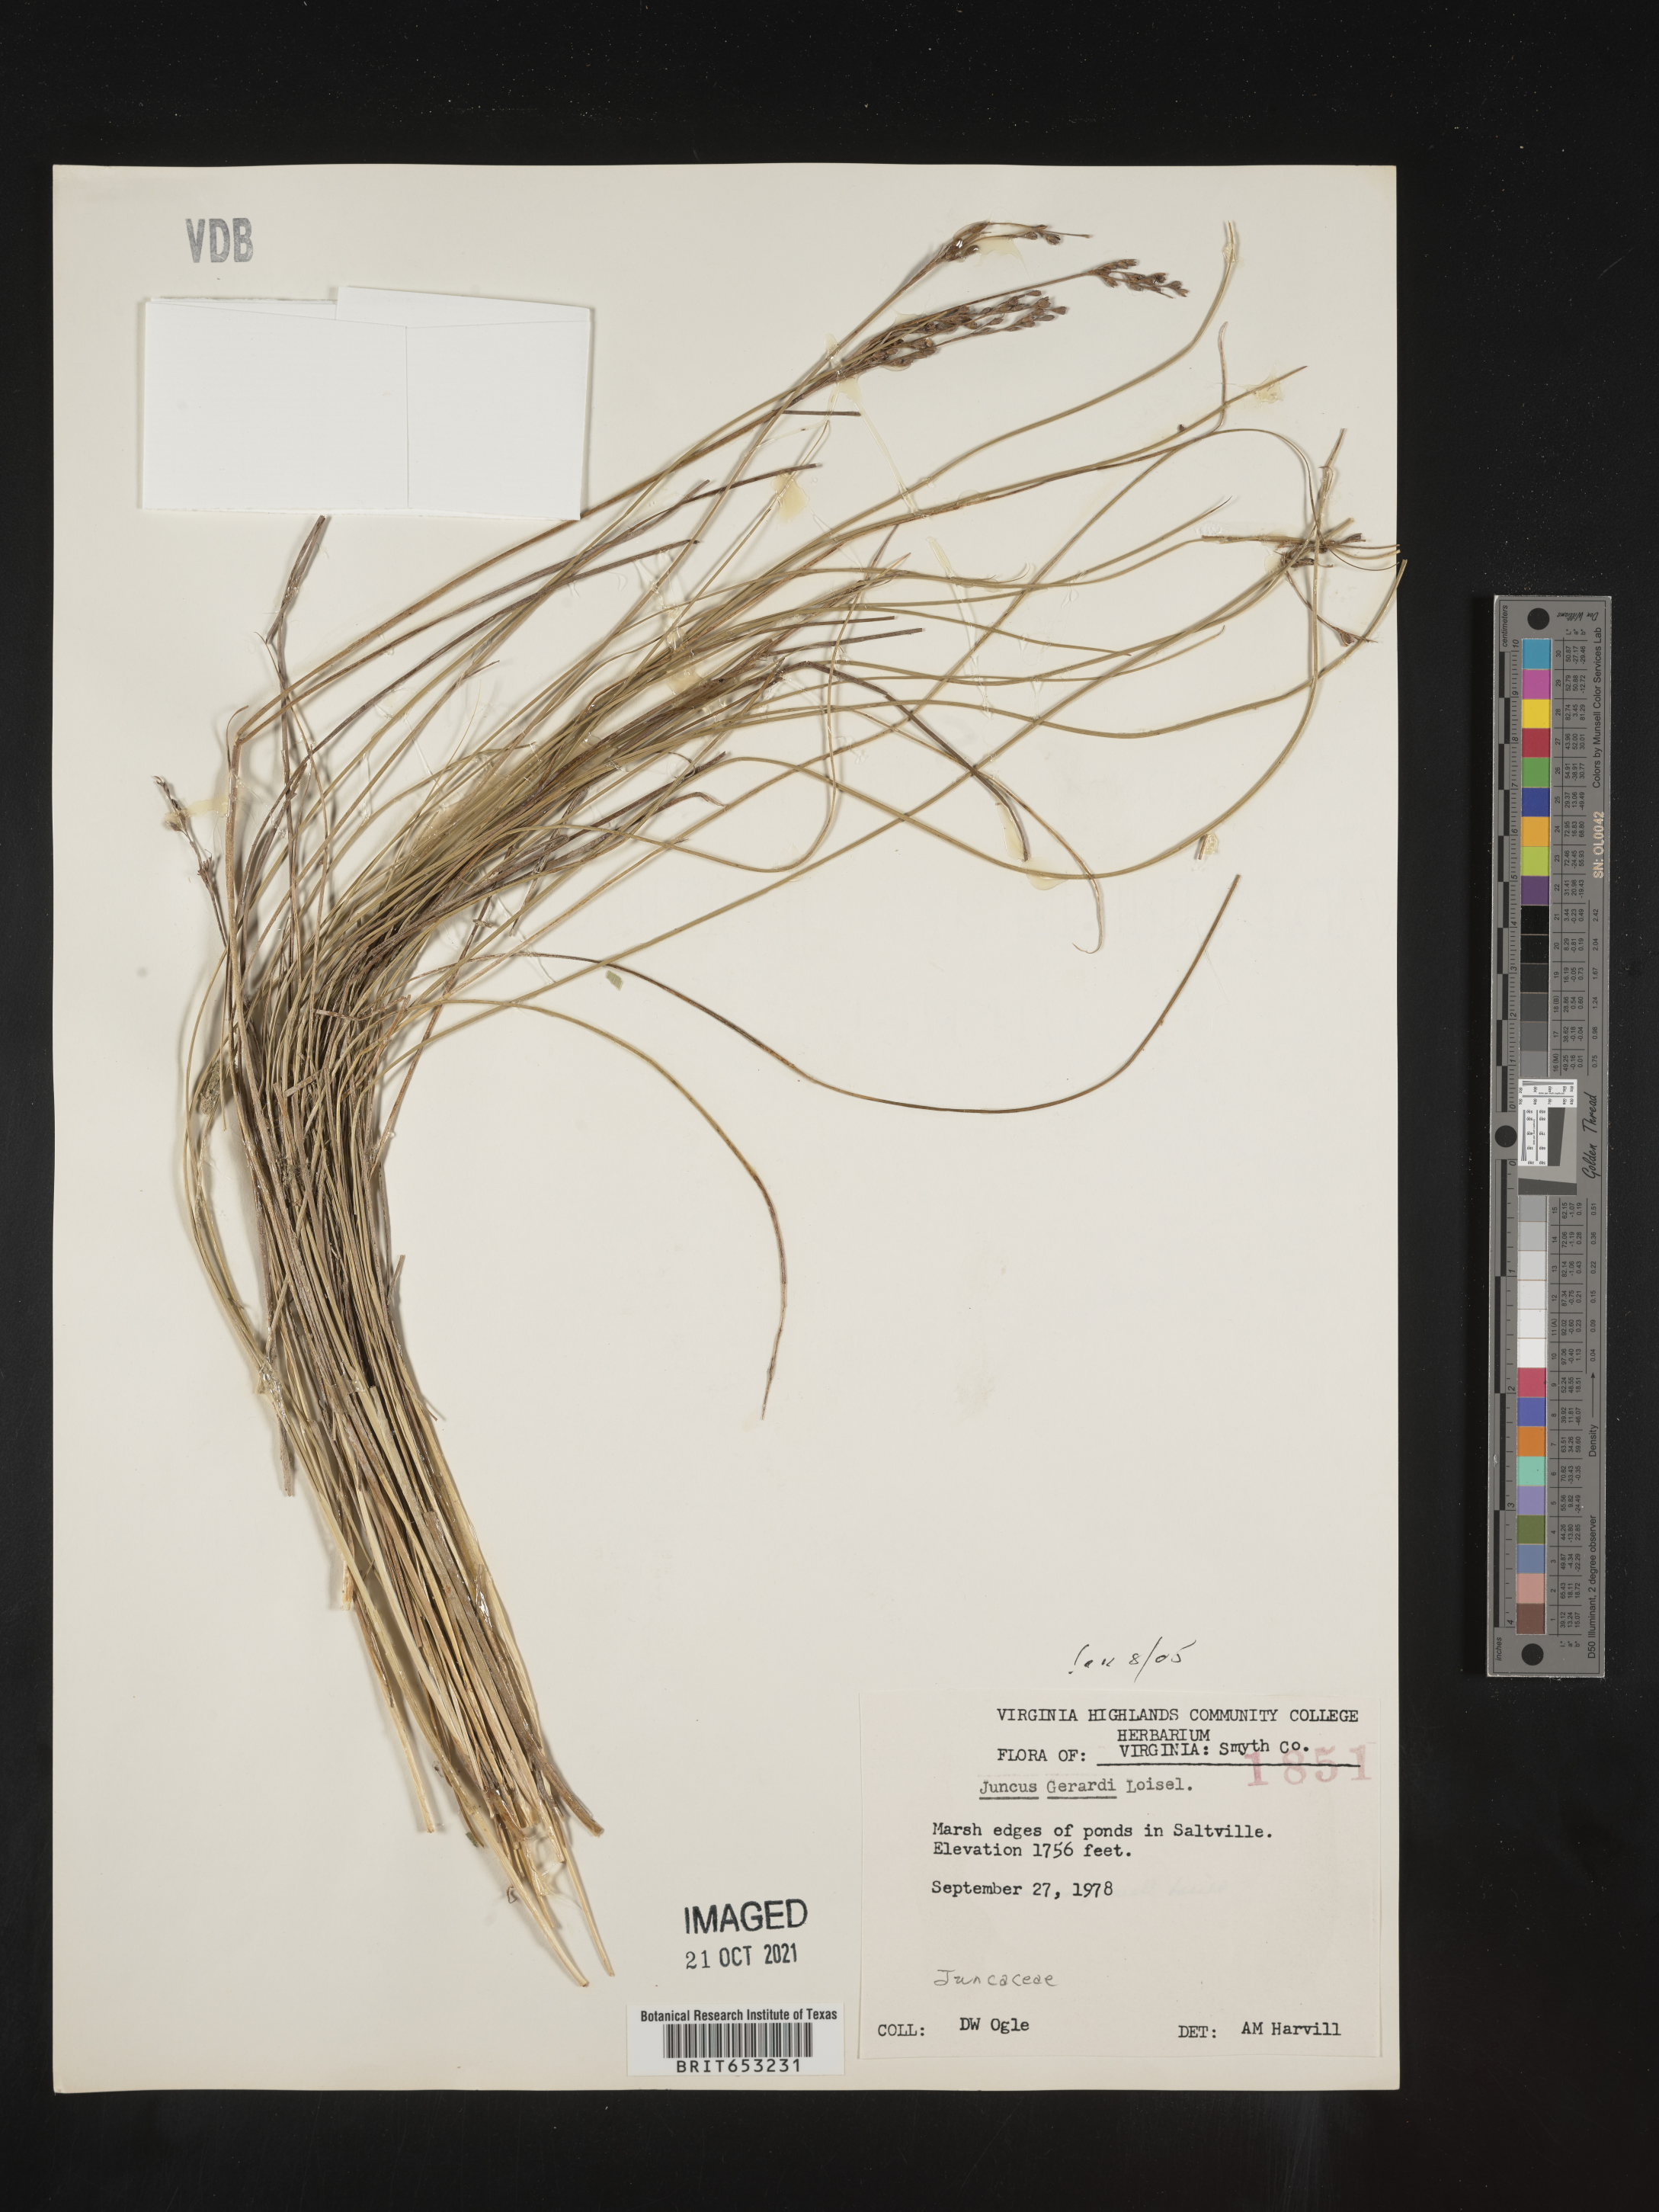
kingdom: Plantae
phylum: Tracheophyta
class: Liliopsida
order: Poales
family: Juncaceae
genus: Juncus
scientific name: Juncus gerardi
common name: Saltmarsh rush
